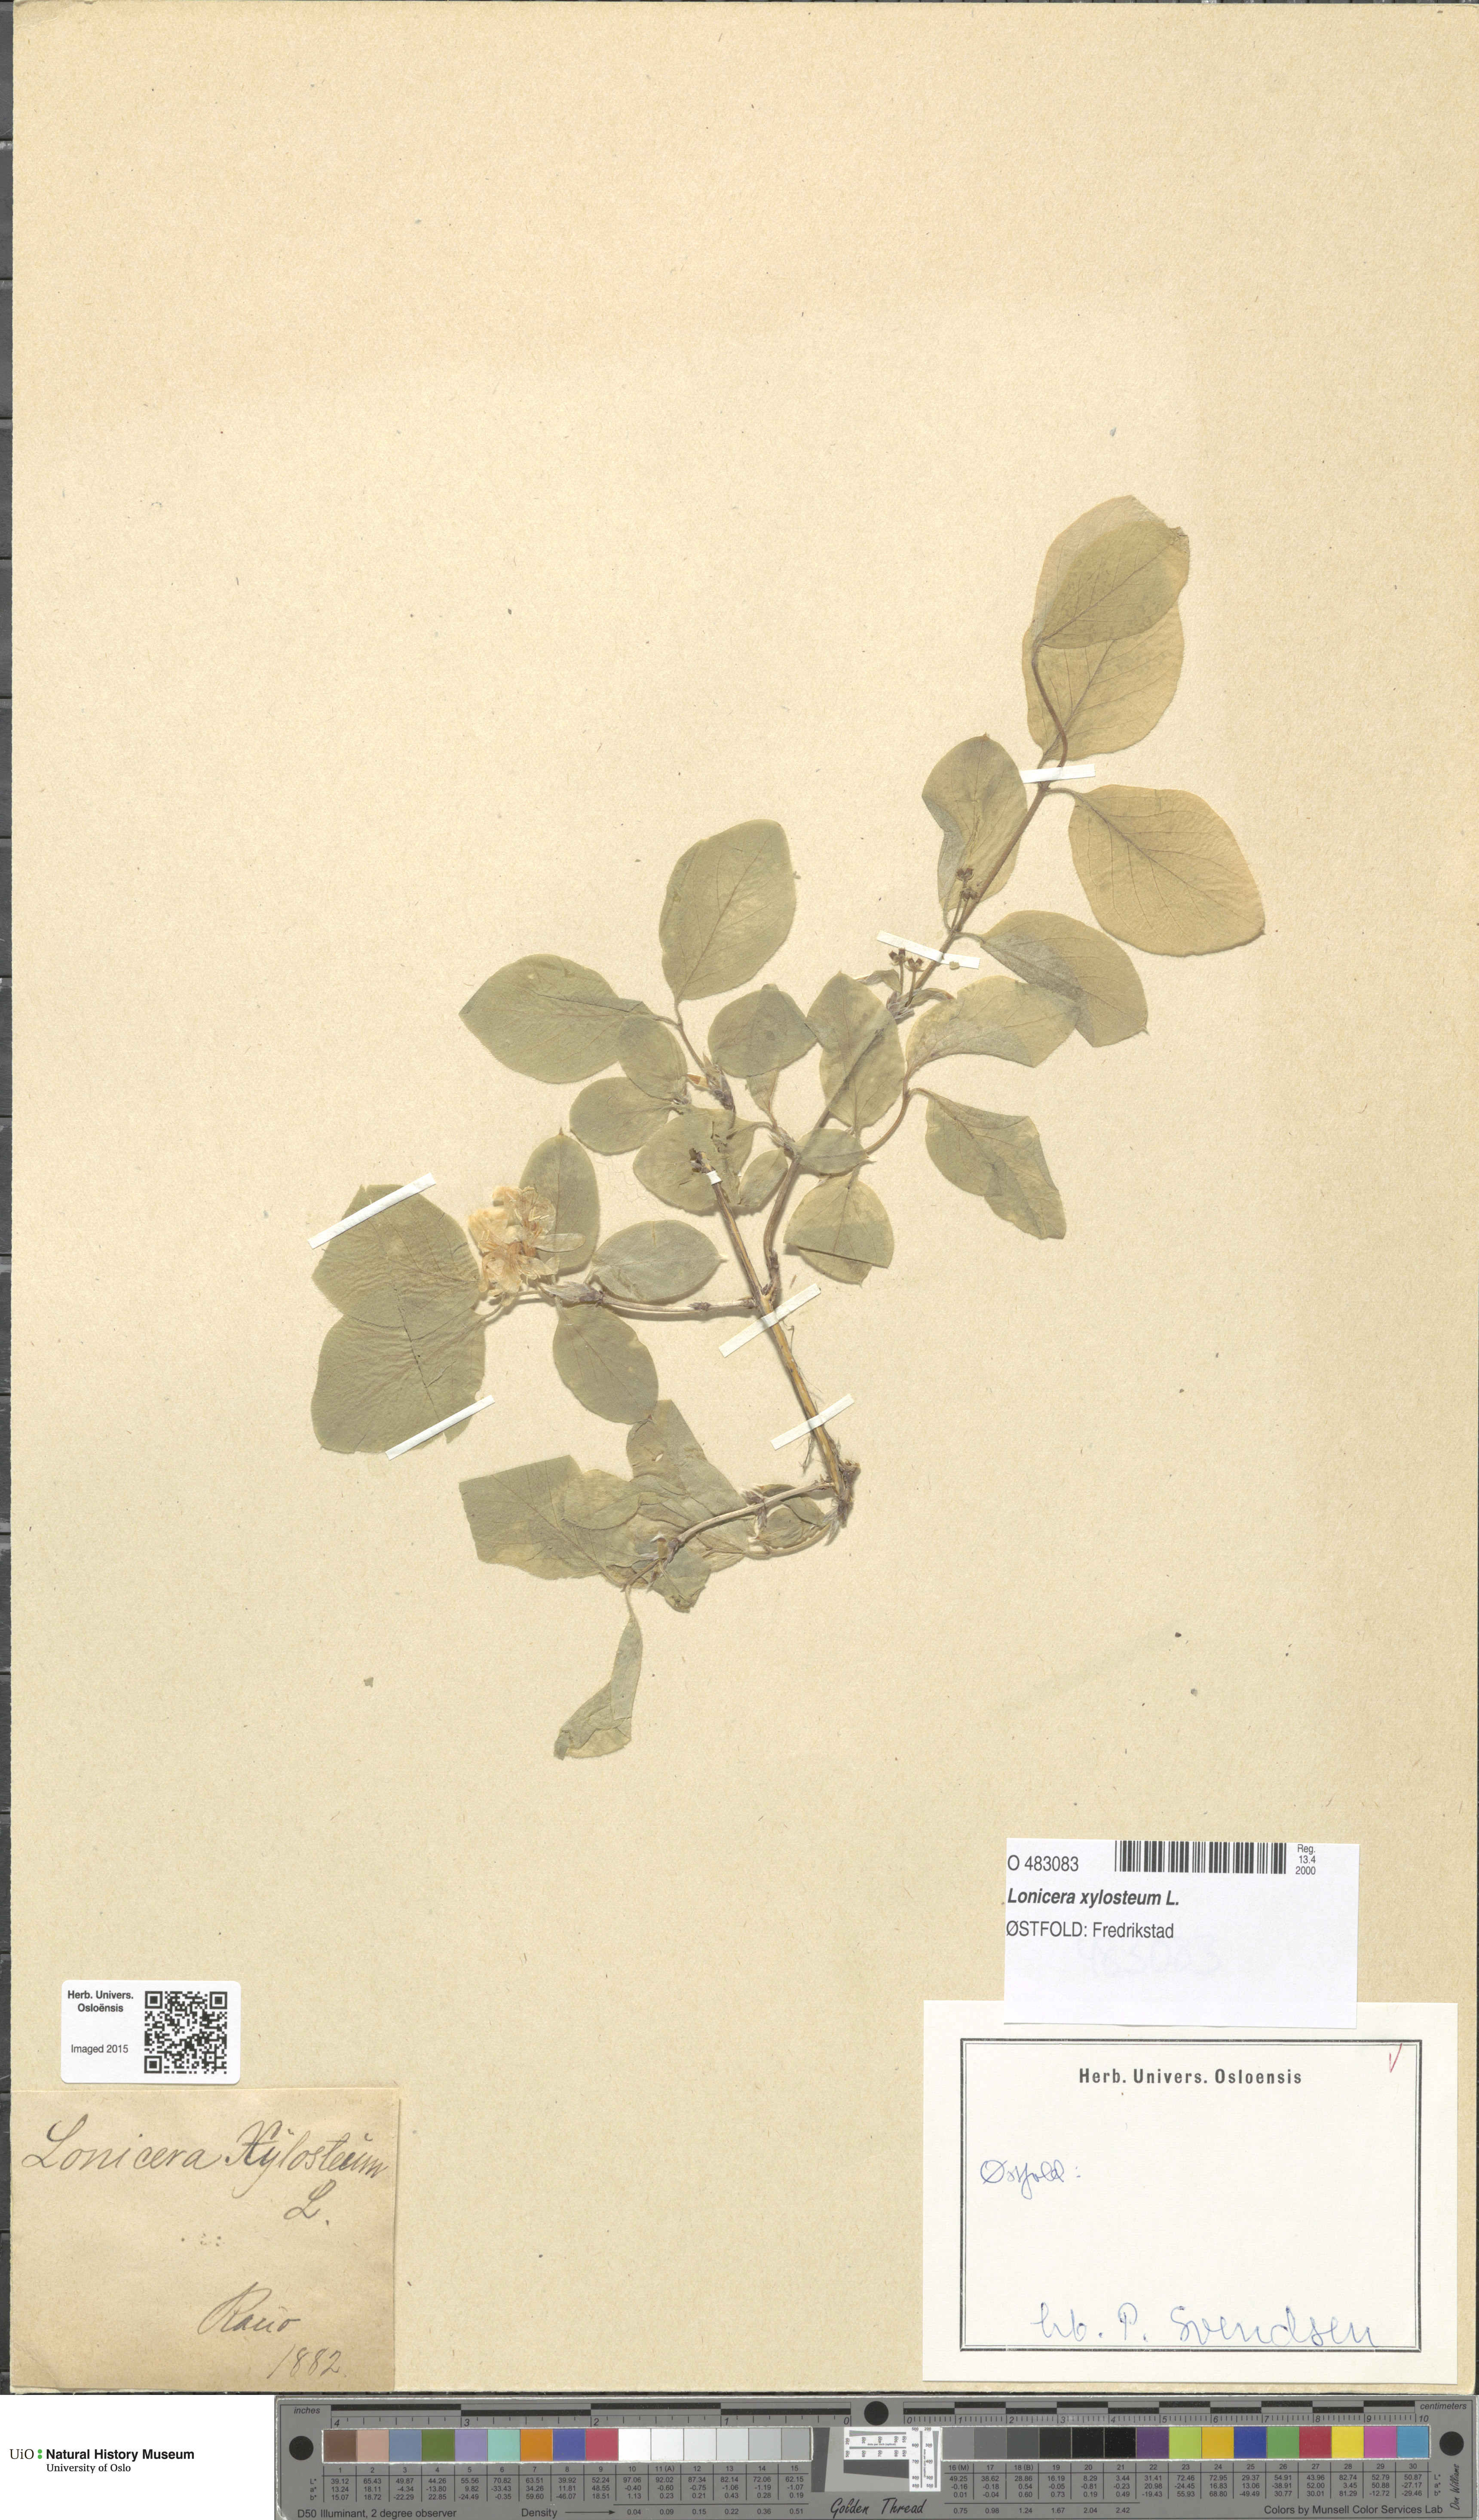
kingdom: Plantae
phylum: Tracheophyta
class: Magnoliopsida
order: Dipsacales
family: Caprifoliaceae
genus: Lonicera
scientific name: Lonicera xylosteum
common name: Fly honeysuckle
